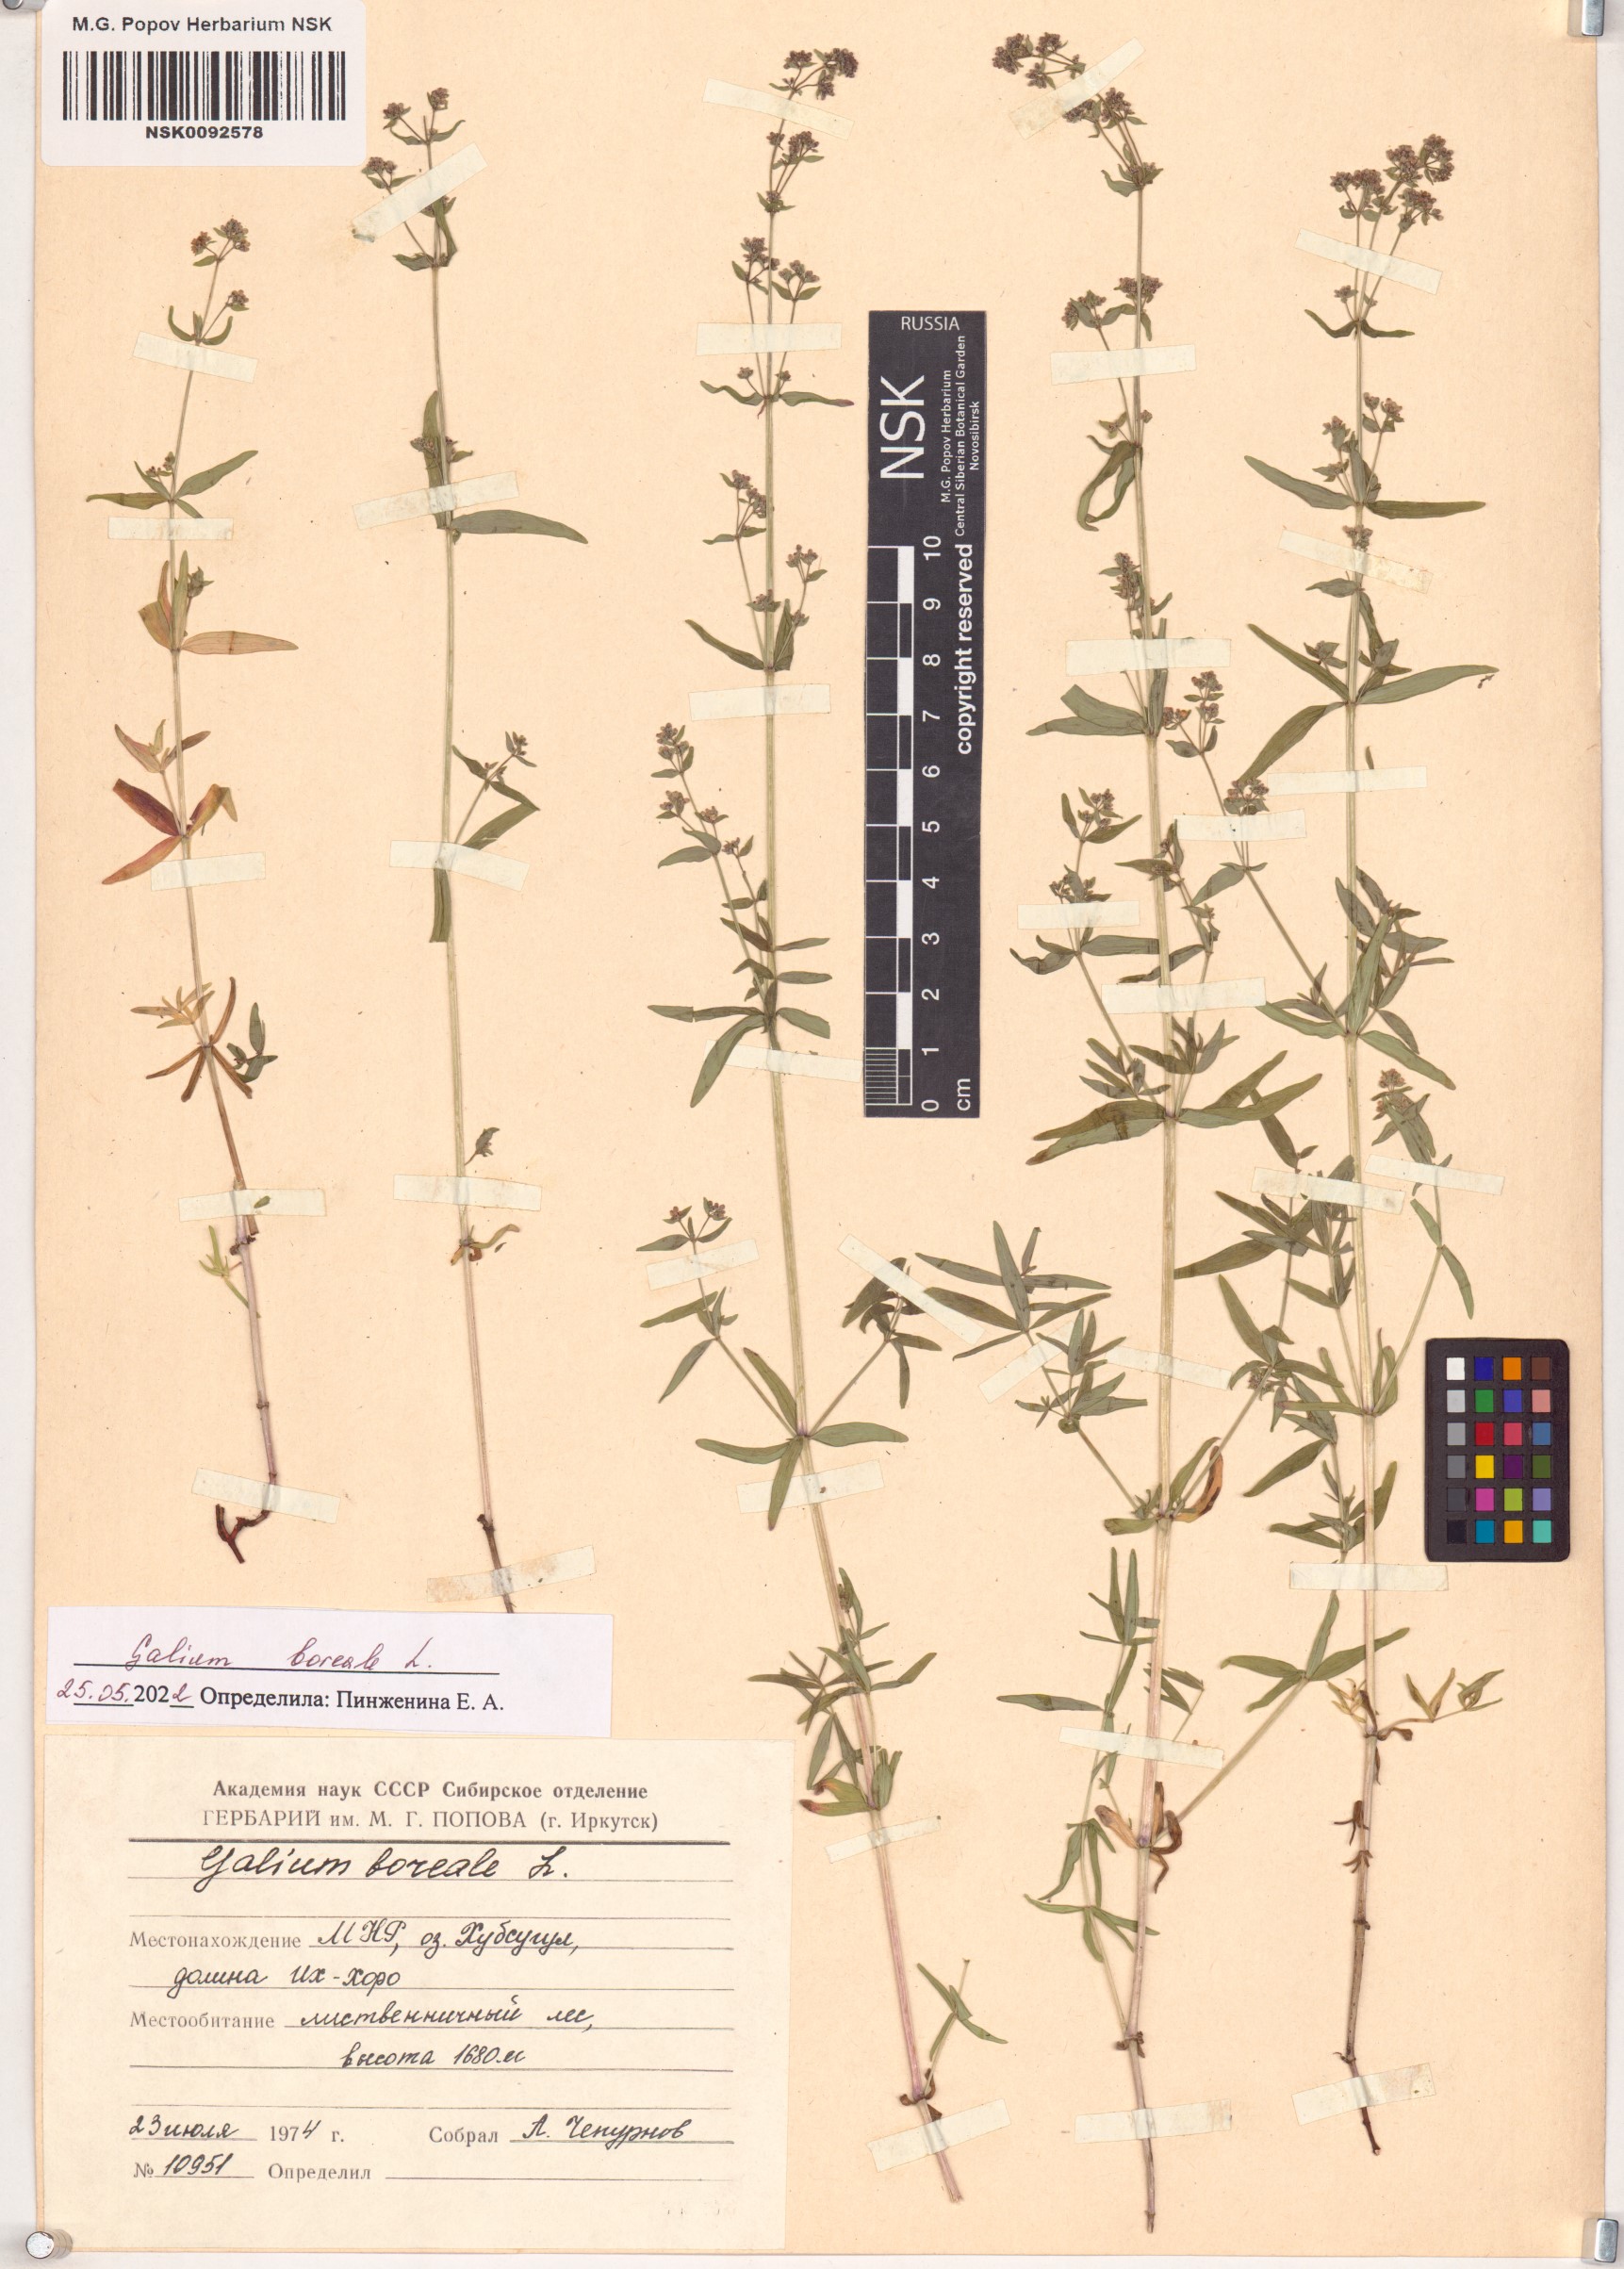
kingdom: Plantae
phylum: Tracheophyta
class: Magnoliopsida
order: Gentianales
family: Rubiaceae
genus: Galium
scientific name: Galium boreale
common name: Northern bedstraw
